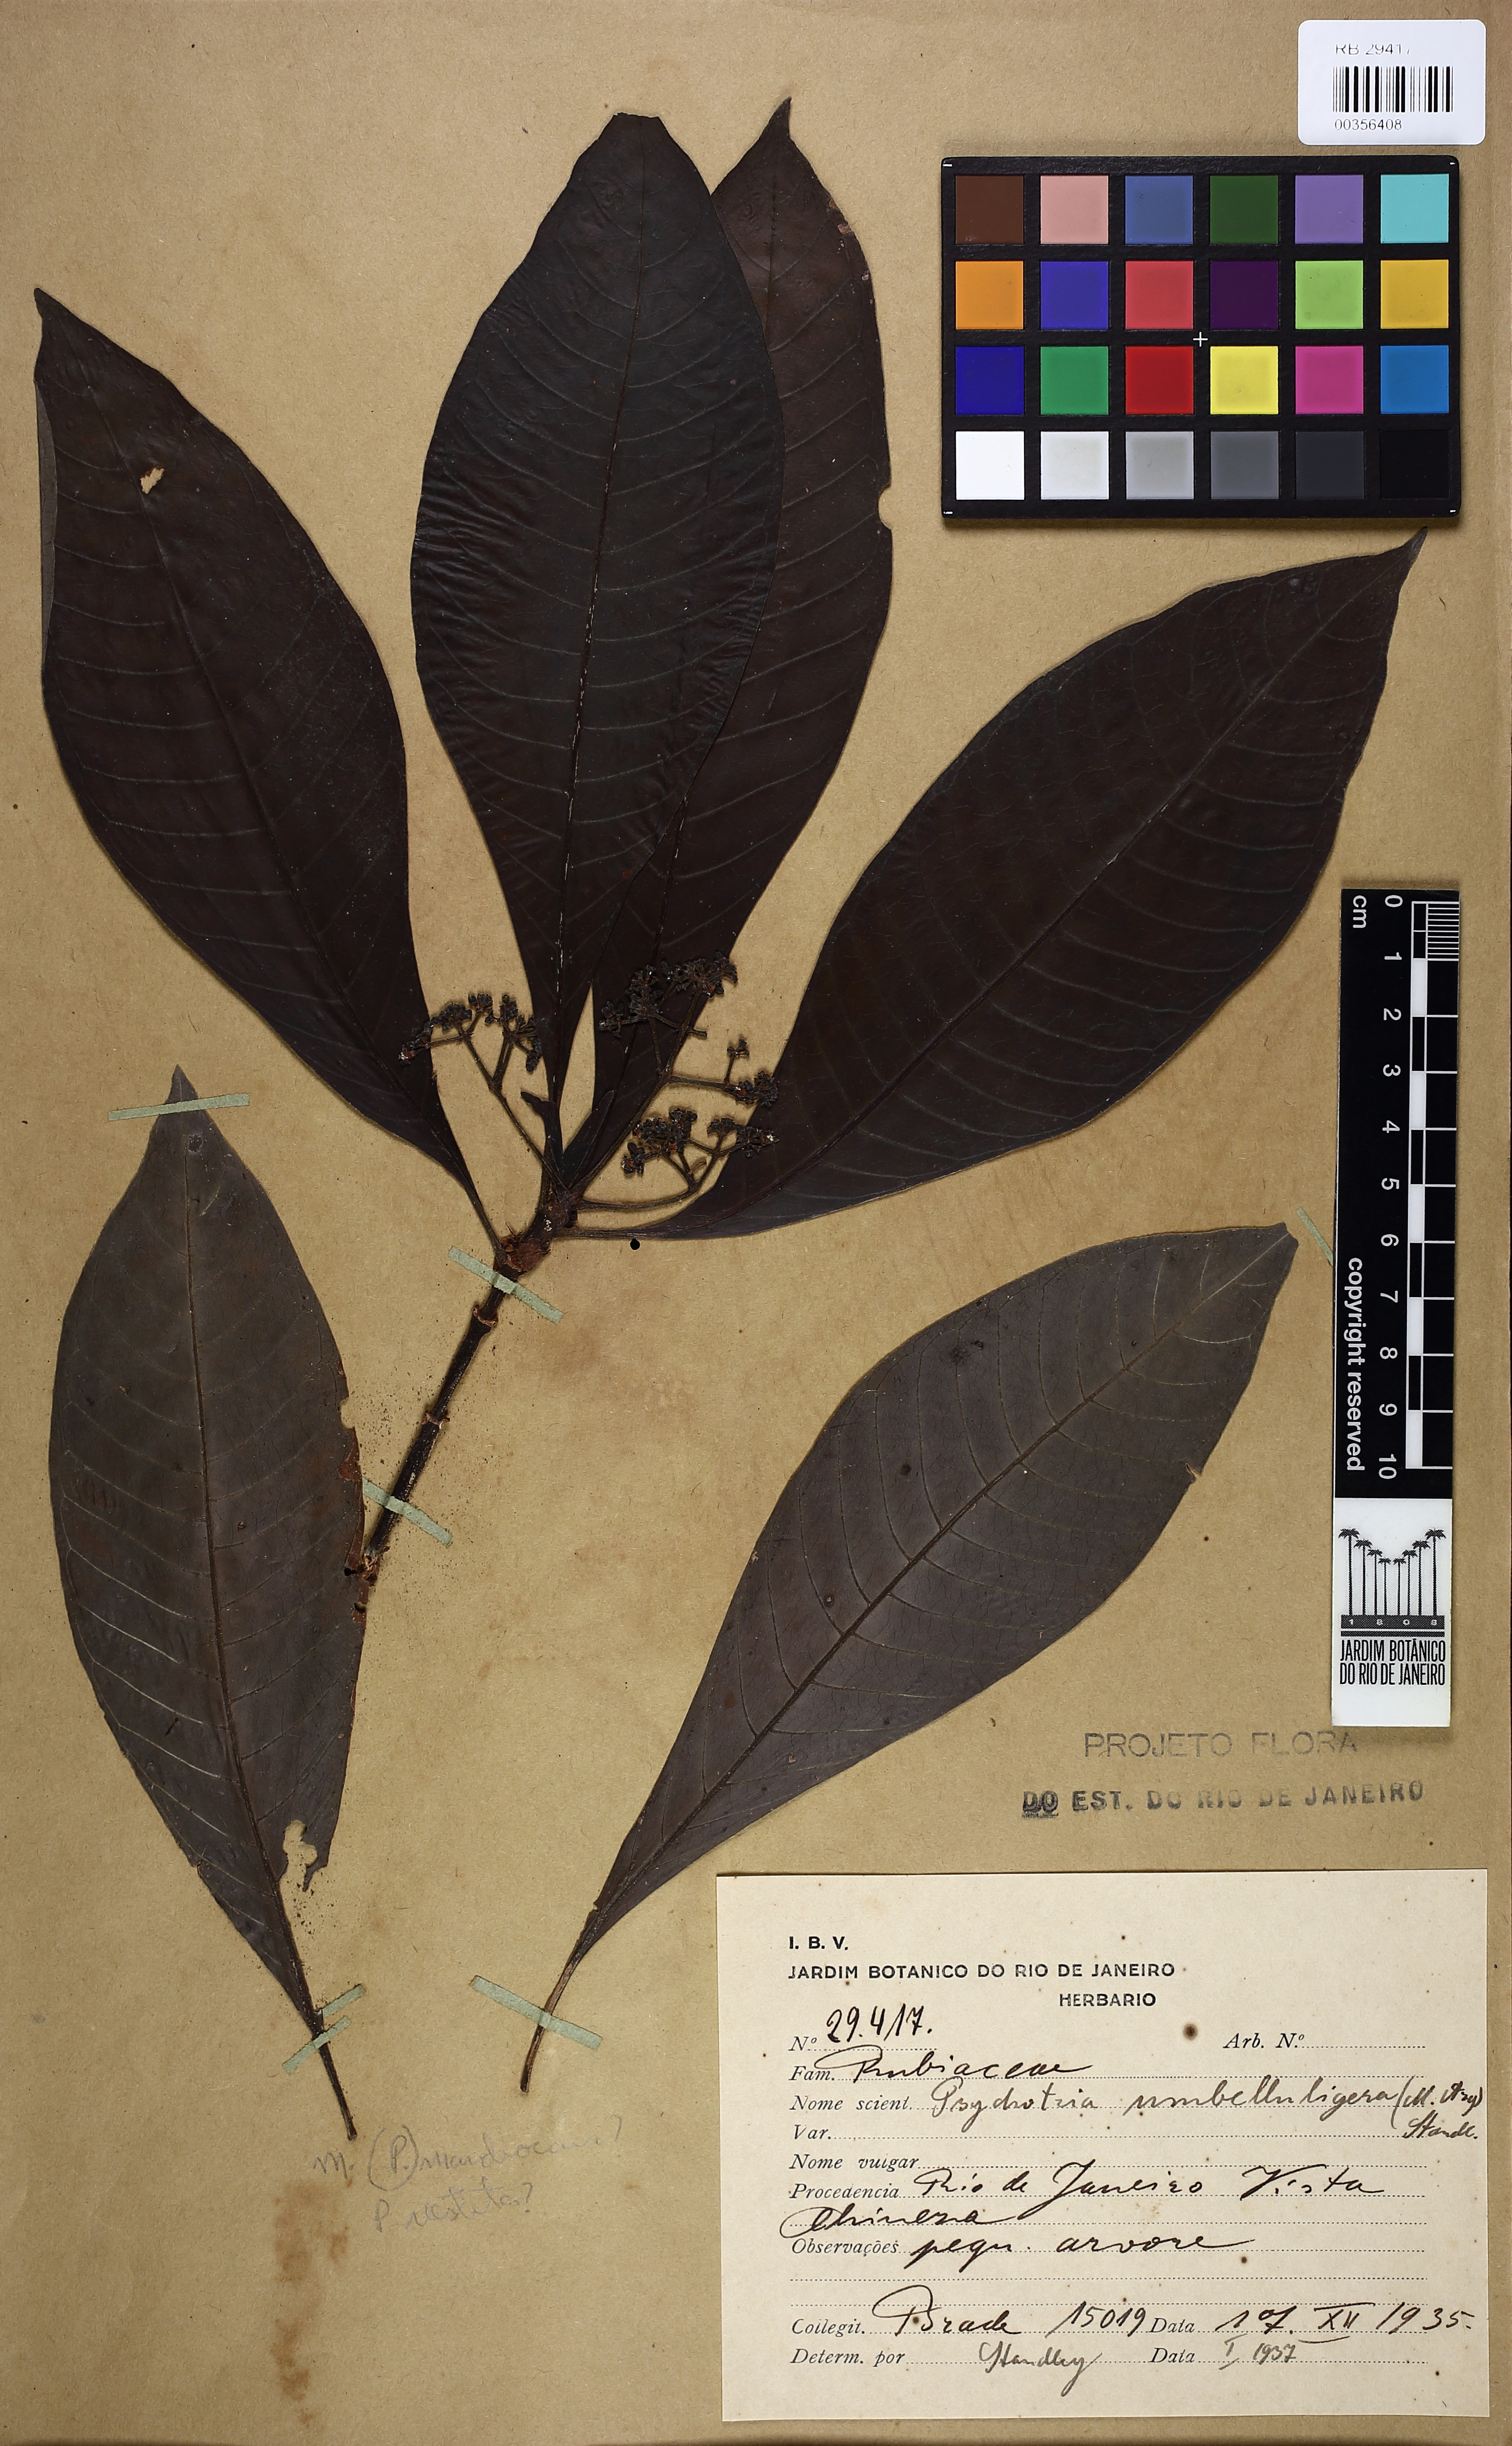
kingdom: Plantae
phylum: Tracheophyta
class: Magnoliopsida
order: Gentianales
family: Rubiaceae
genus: Eumachia
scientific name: Eumachia cymuligera
